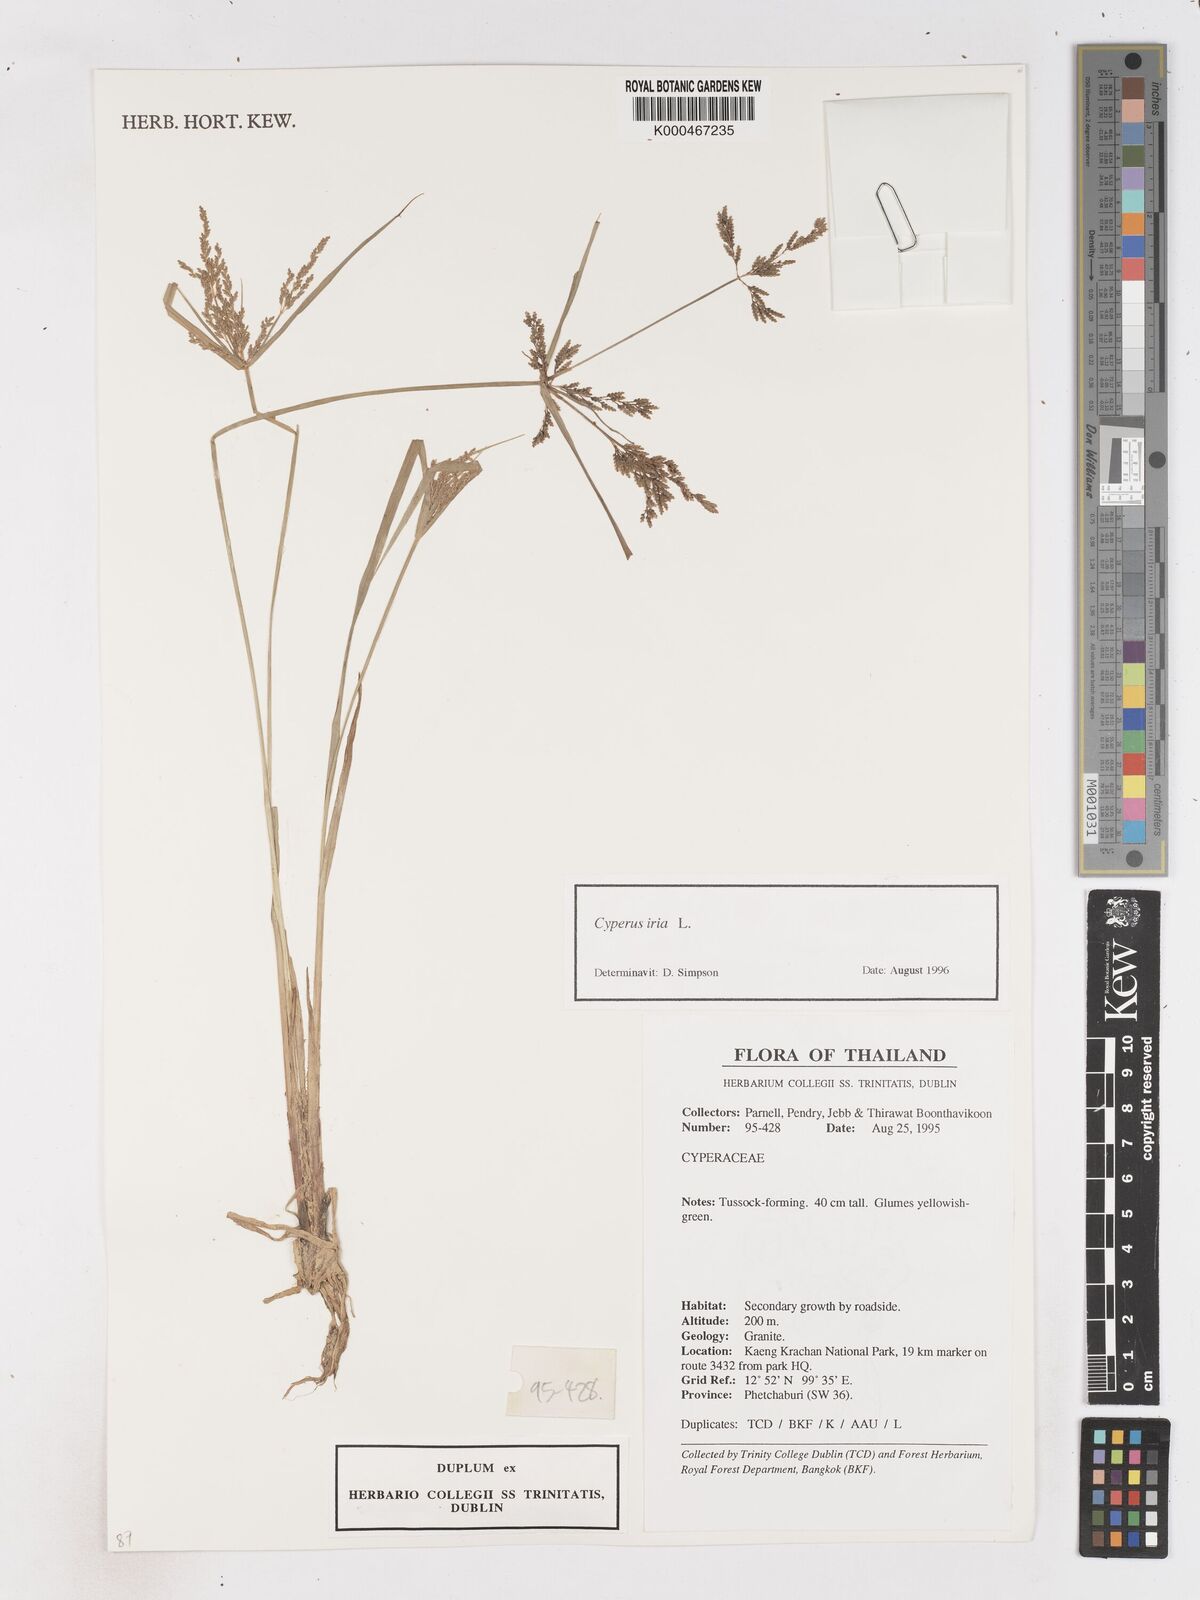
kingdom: Plantae
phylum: Tracheophyta
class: Liliopsida
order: Poales
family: Cyperaceae
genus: Cyperus
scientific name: Cyperus iria
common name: Ricefield flatsedge
